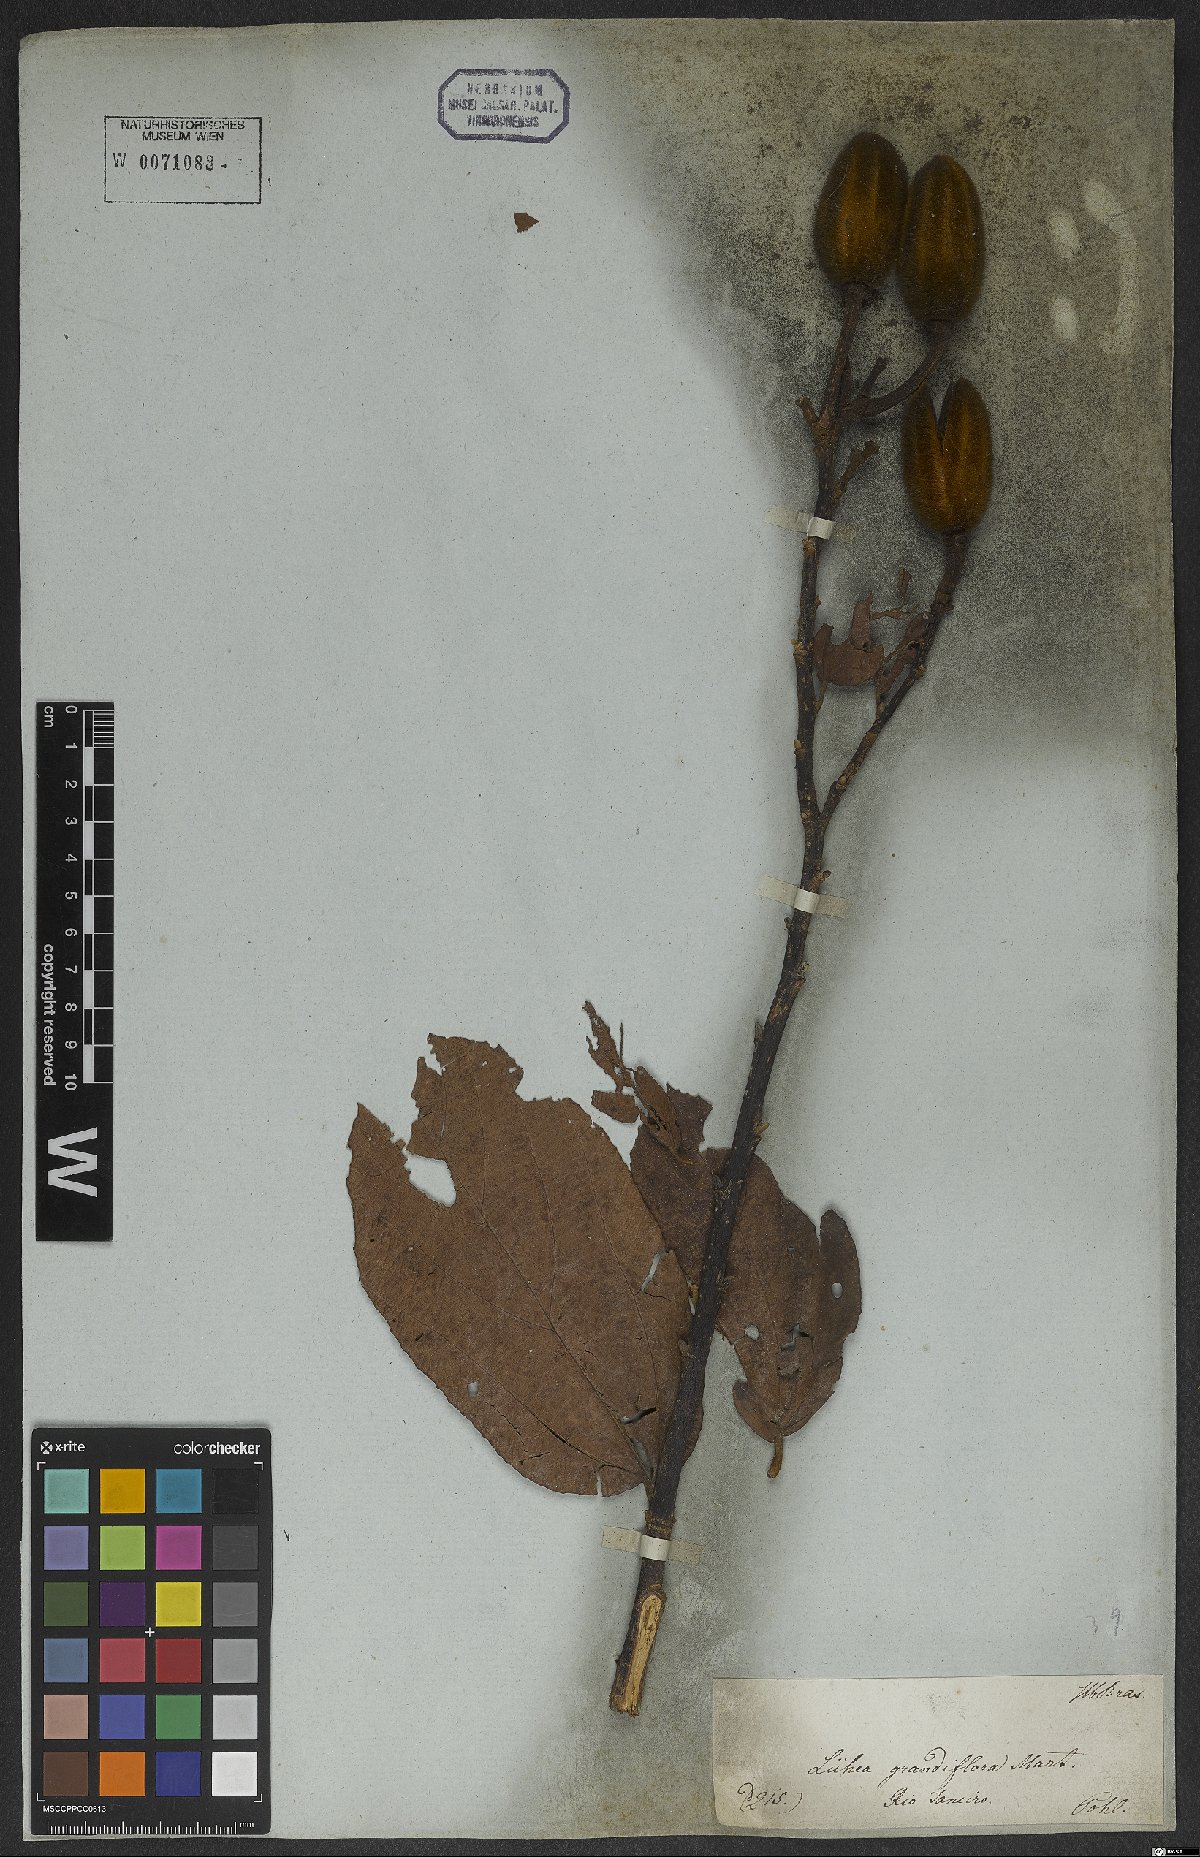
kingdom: Plantae
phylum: Tracheophyta
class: Magnoliopsida
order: Malvales
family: Malvaceae
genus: Luehea
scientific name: Luehea grandiflora
